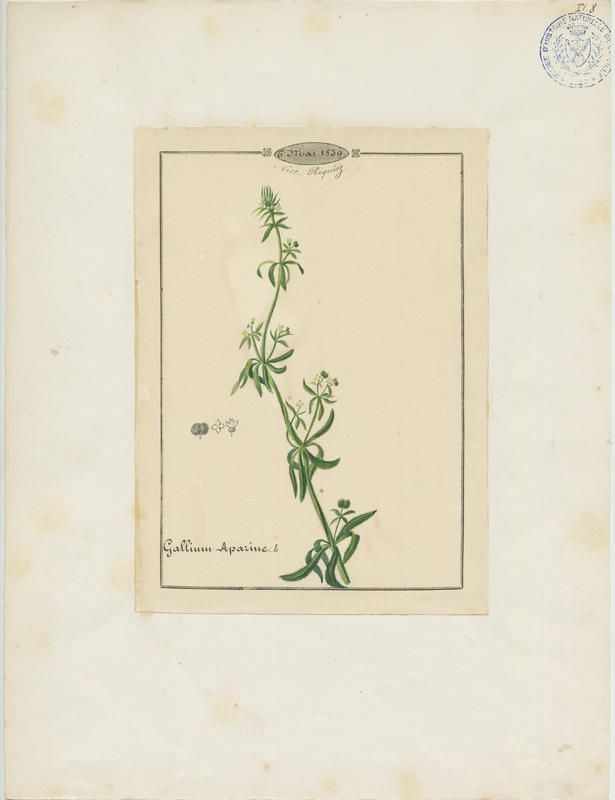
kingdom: Plantae
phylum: Tracheophyta
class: Magnoliopsida
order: Gentianales
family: Rubiaceae
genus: Galium
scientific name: Galium aparine
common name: Cleavers
